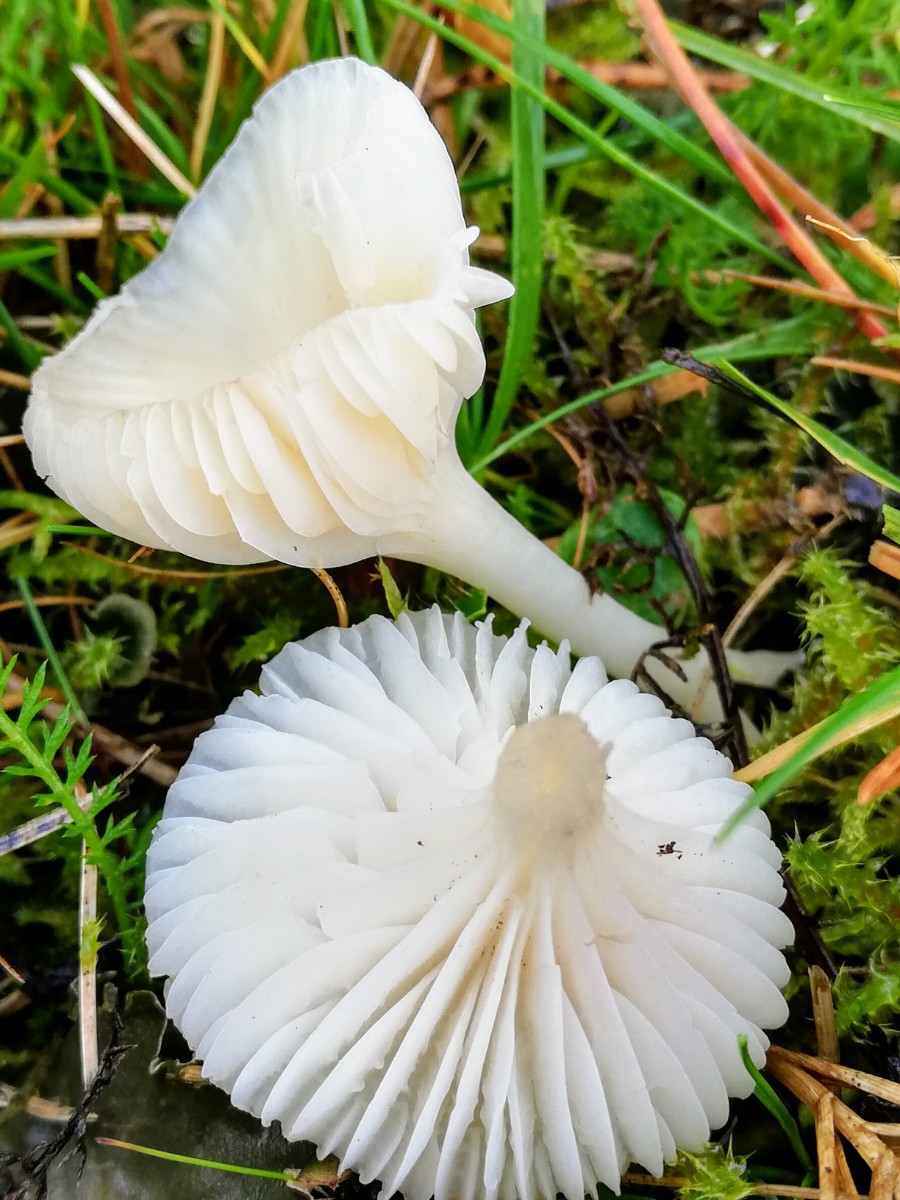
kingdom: Fungi
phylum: Basidiomycota
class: Agaricomycetes
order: Agaricales
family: Hygrophoraceae
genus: Cuphophyllus
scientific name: Cuphophyllus russocoriaceus
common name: ruslæder-vokshat
